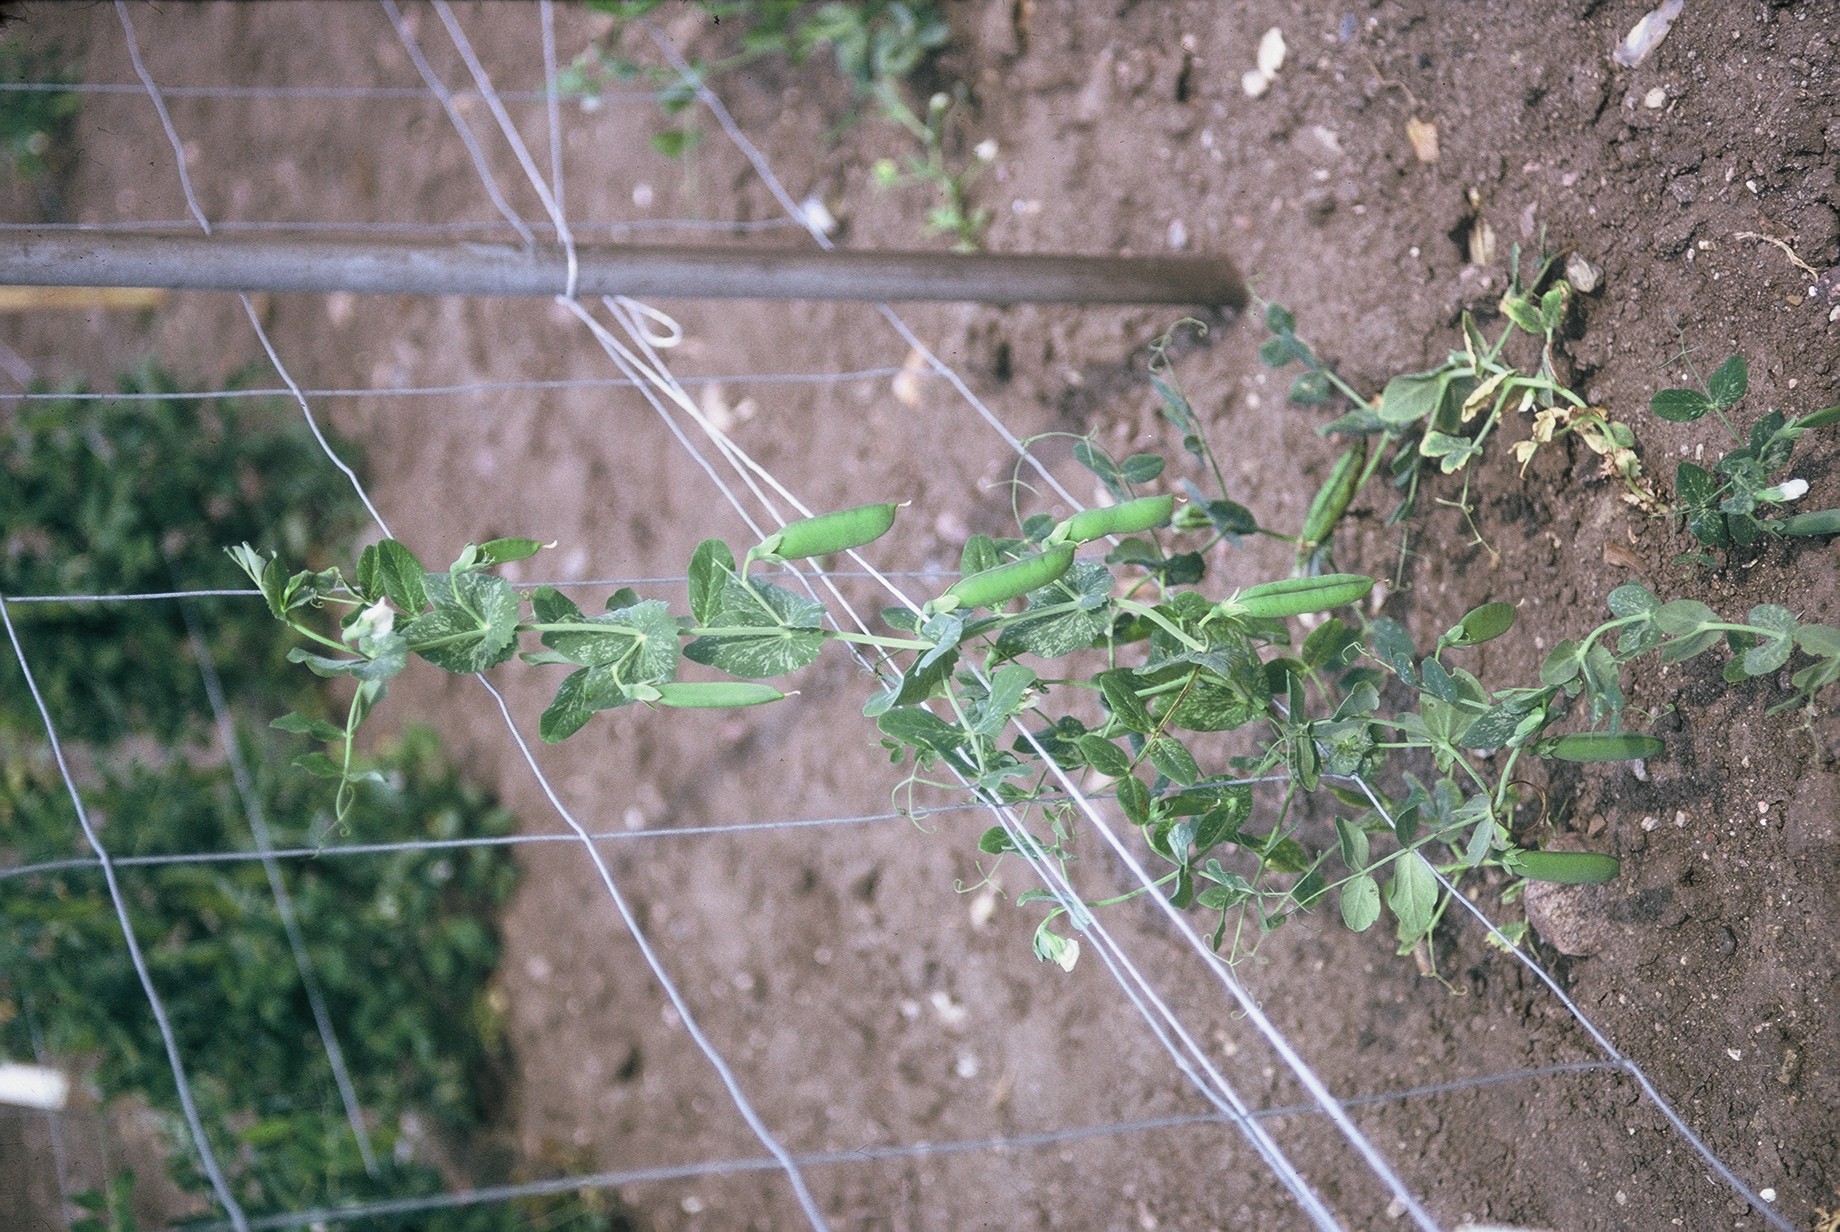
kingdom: Plantae
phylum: Tracheophyta
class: Magnoliopsida
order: Fabales
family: Fabaceae
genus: Lathyrus
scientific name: Lathyrus oleraceus
